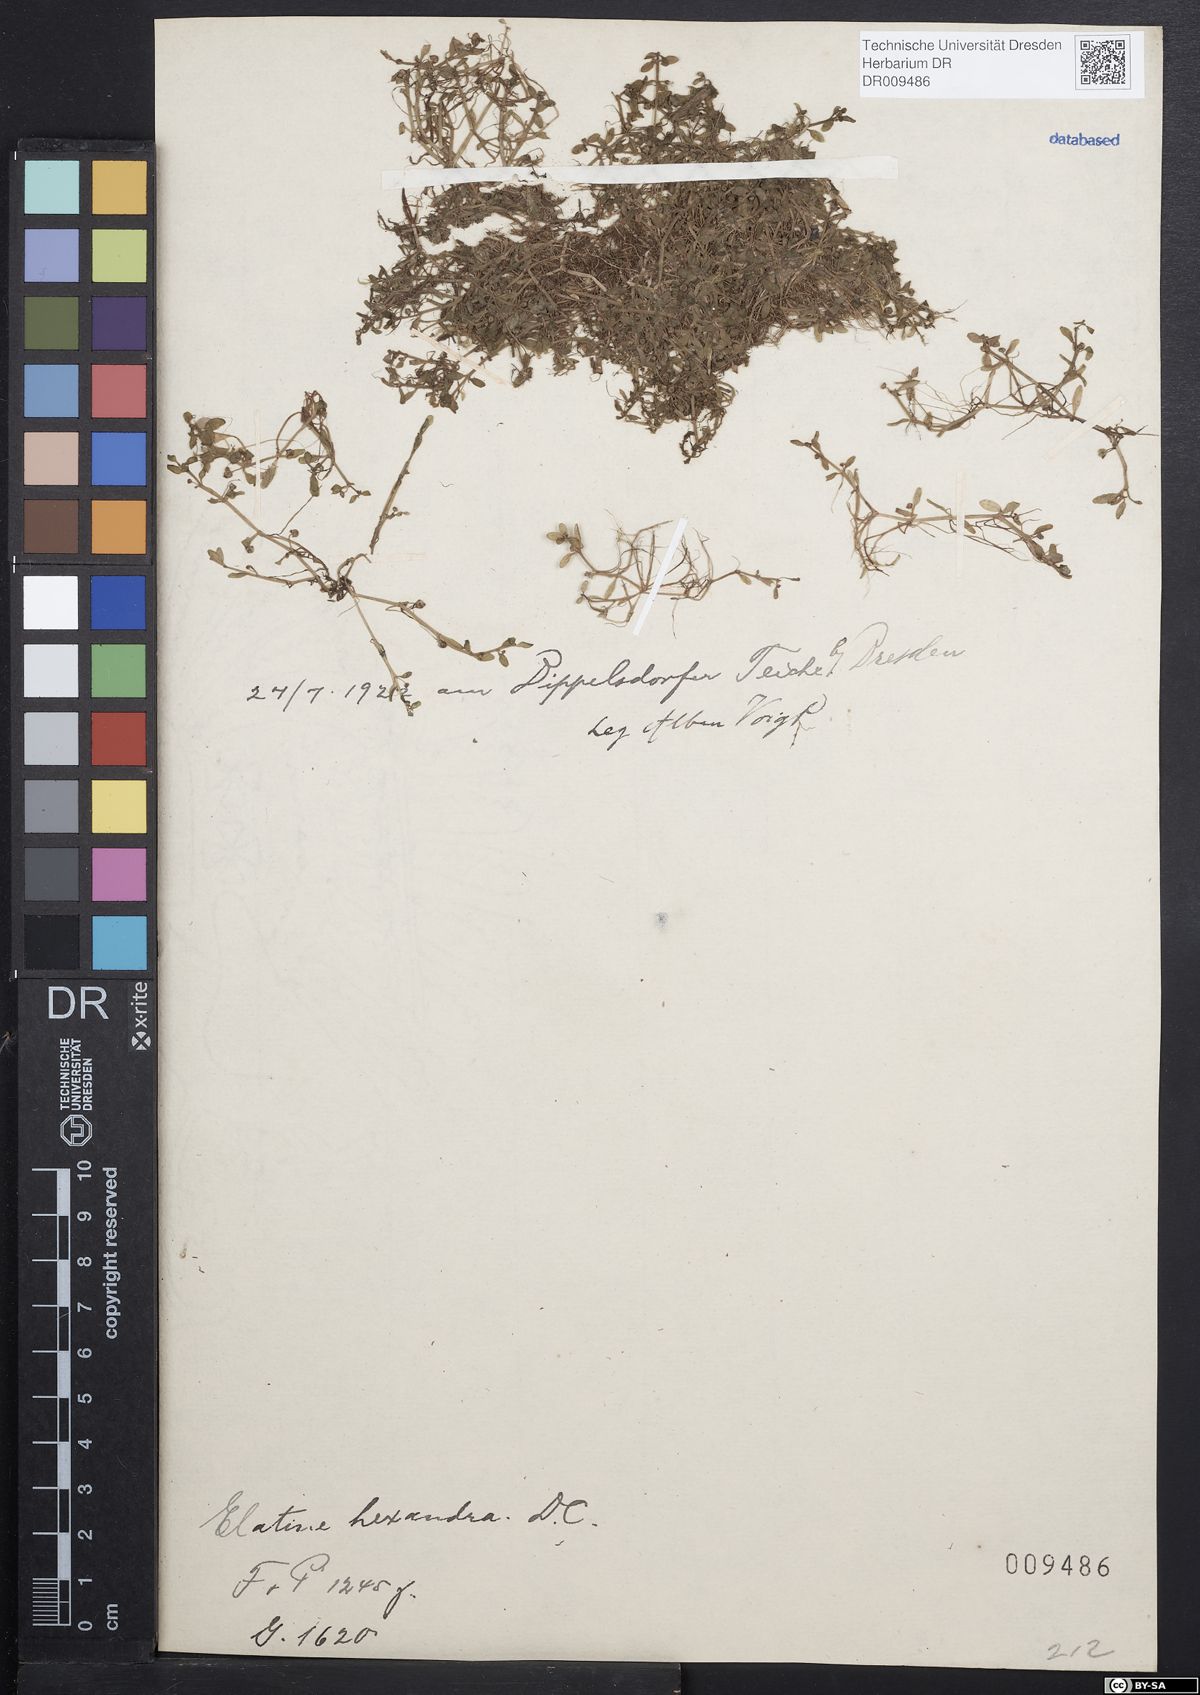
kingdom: Plantae
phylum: Tracheophyta
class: Magnoliopsida
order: Malpighiales
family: Elatinaceae
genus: Elatine
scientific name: Elatine hexandra
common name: Six-stamened waterwort
